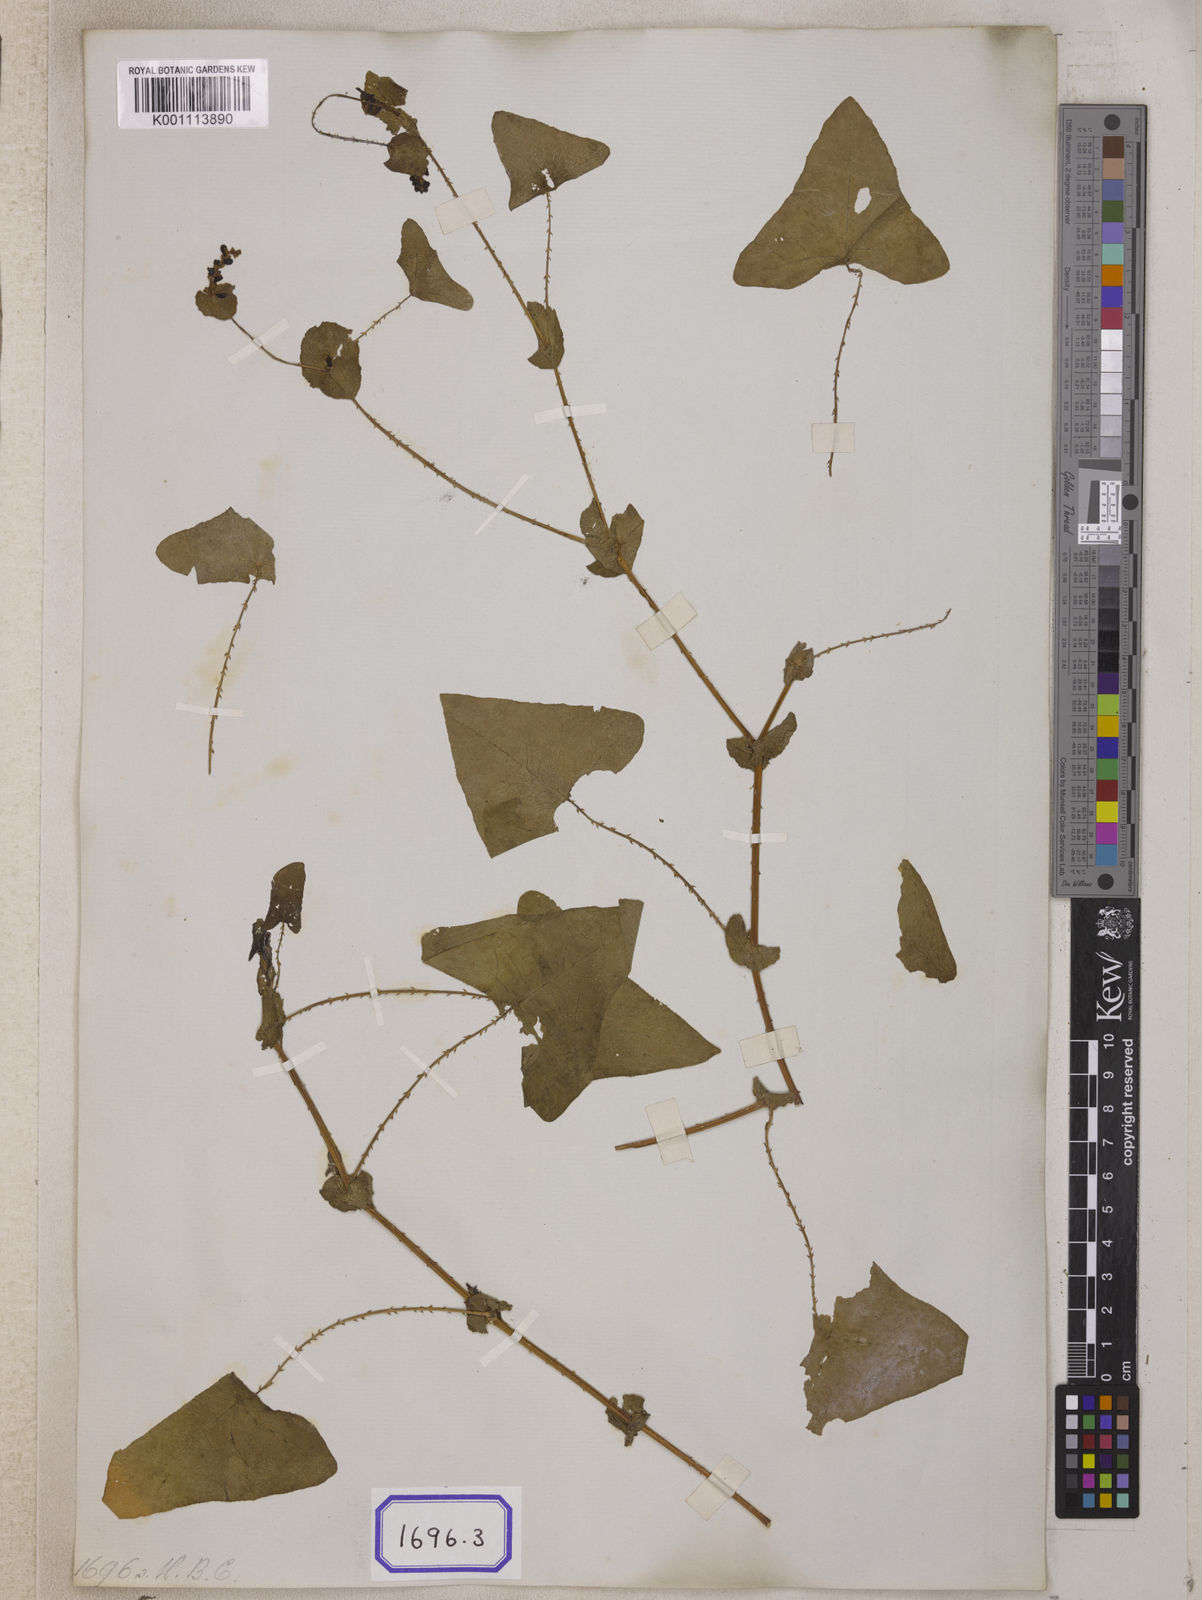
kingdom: Plantae
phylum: Tracheophyta
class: Magnoliopsida
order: Caryophyllales
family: Polygonaceae
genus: Persicaria
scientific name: Persicaria perfoliata
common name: Asiatic tearthumb
